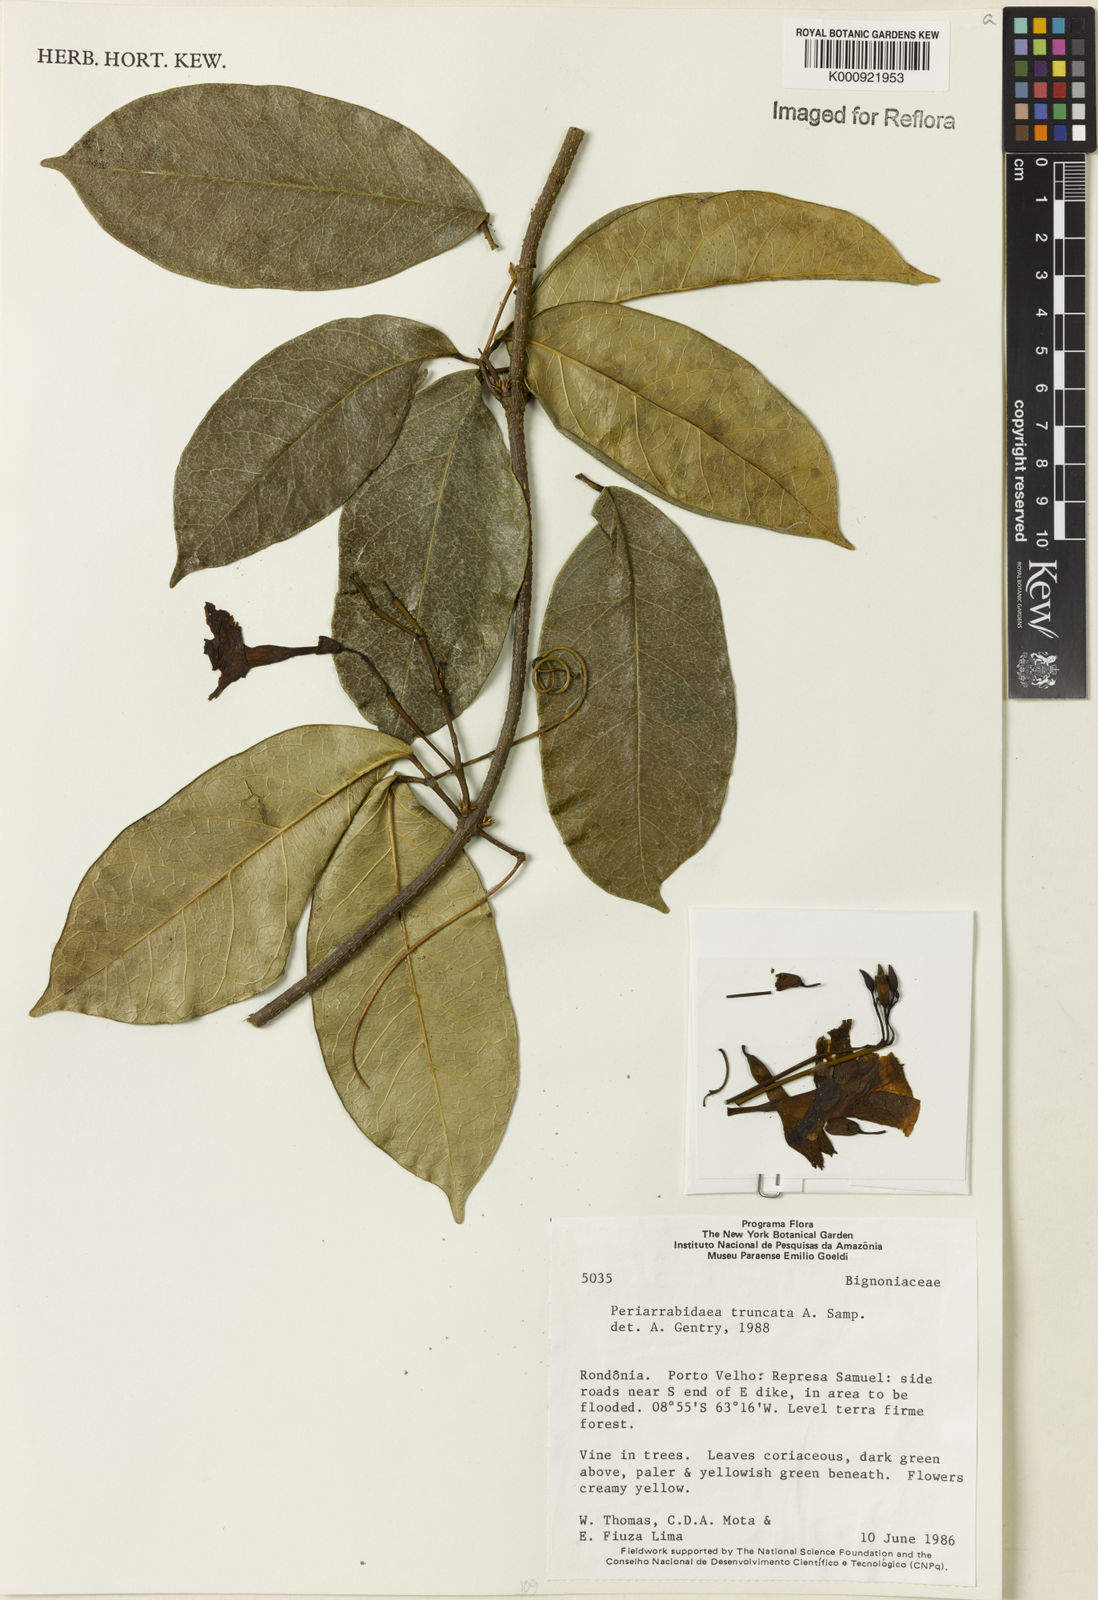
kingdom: Plantae
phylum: Tracheophyta
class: Magnoliopsida
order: Lamiales
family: Bignoniaceae
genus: Tanaecium
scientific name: Tanaecium truncatum
